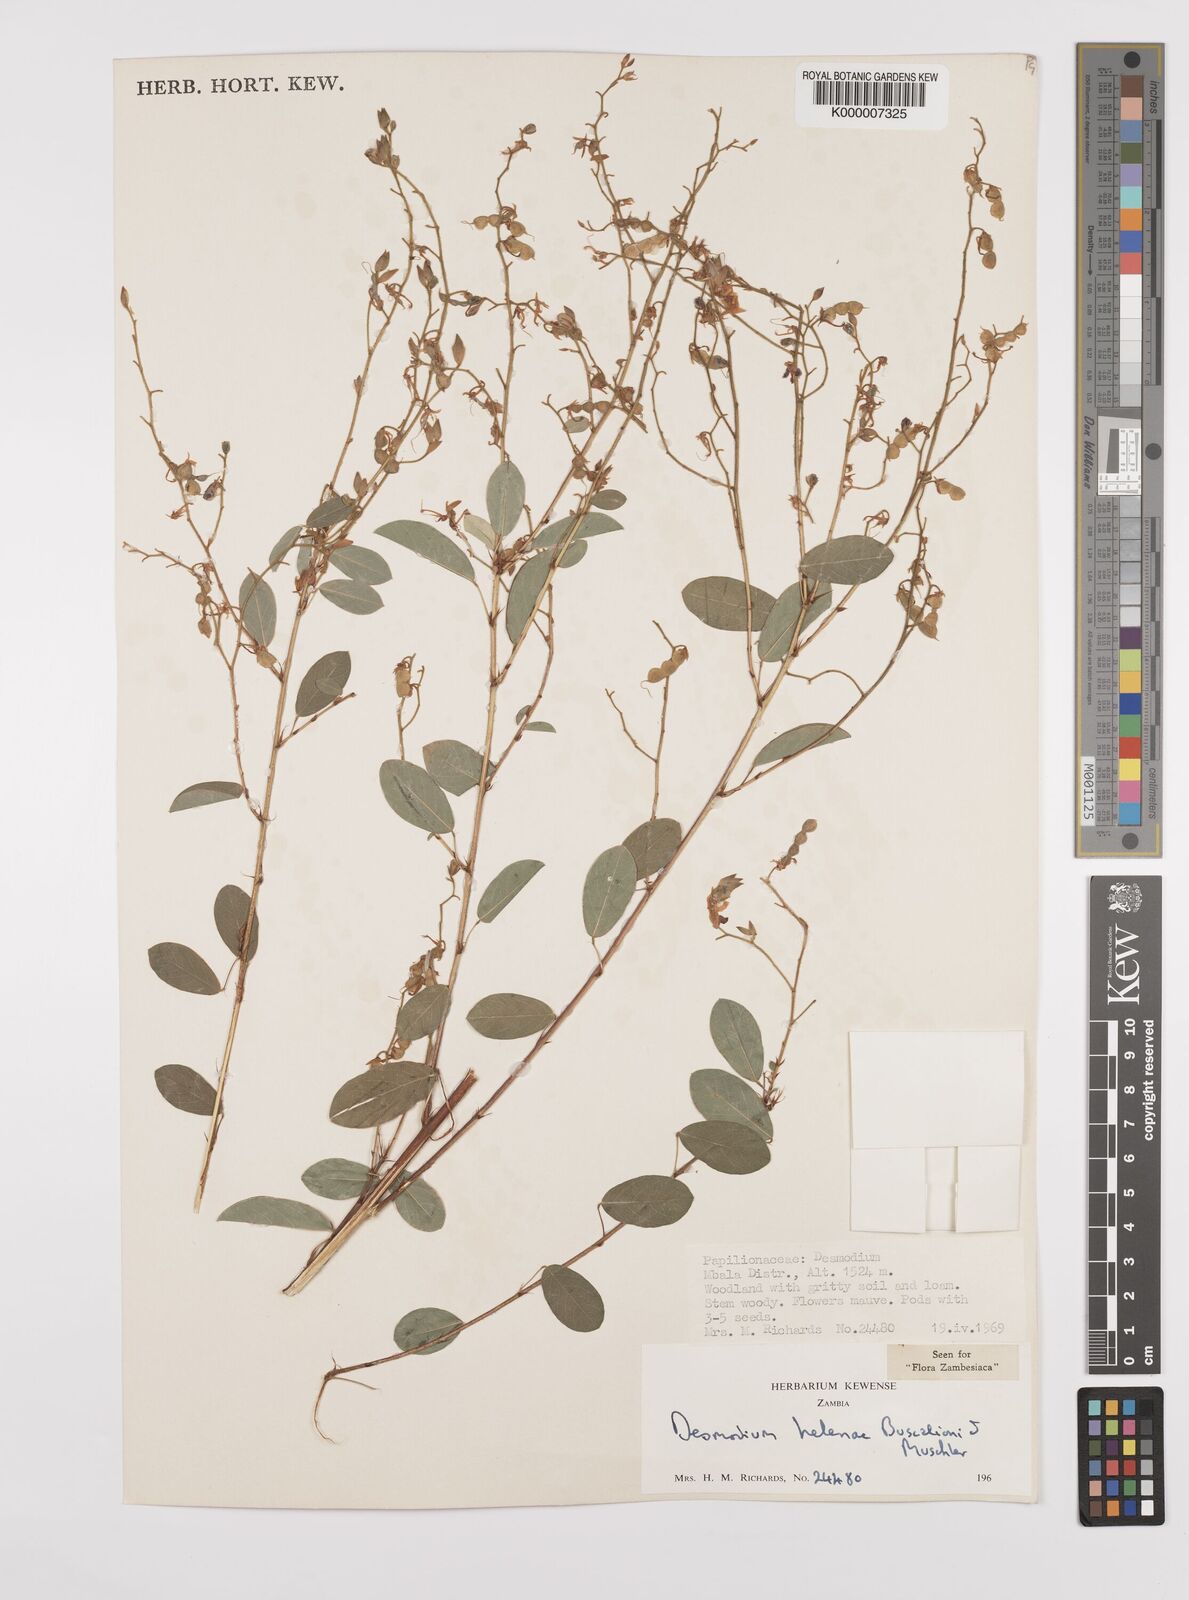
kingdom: Plantae
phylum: Tracheophyta
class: Magnoliopsida
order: Fabales
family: Fabaceae
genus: Grona
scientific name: Grona helenae
